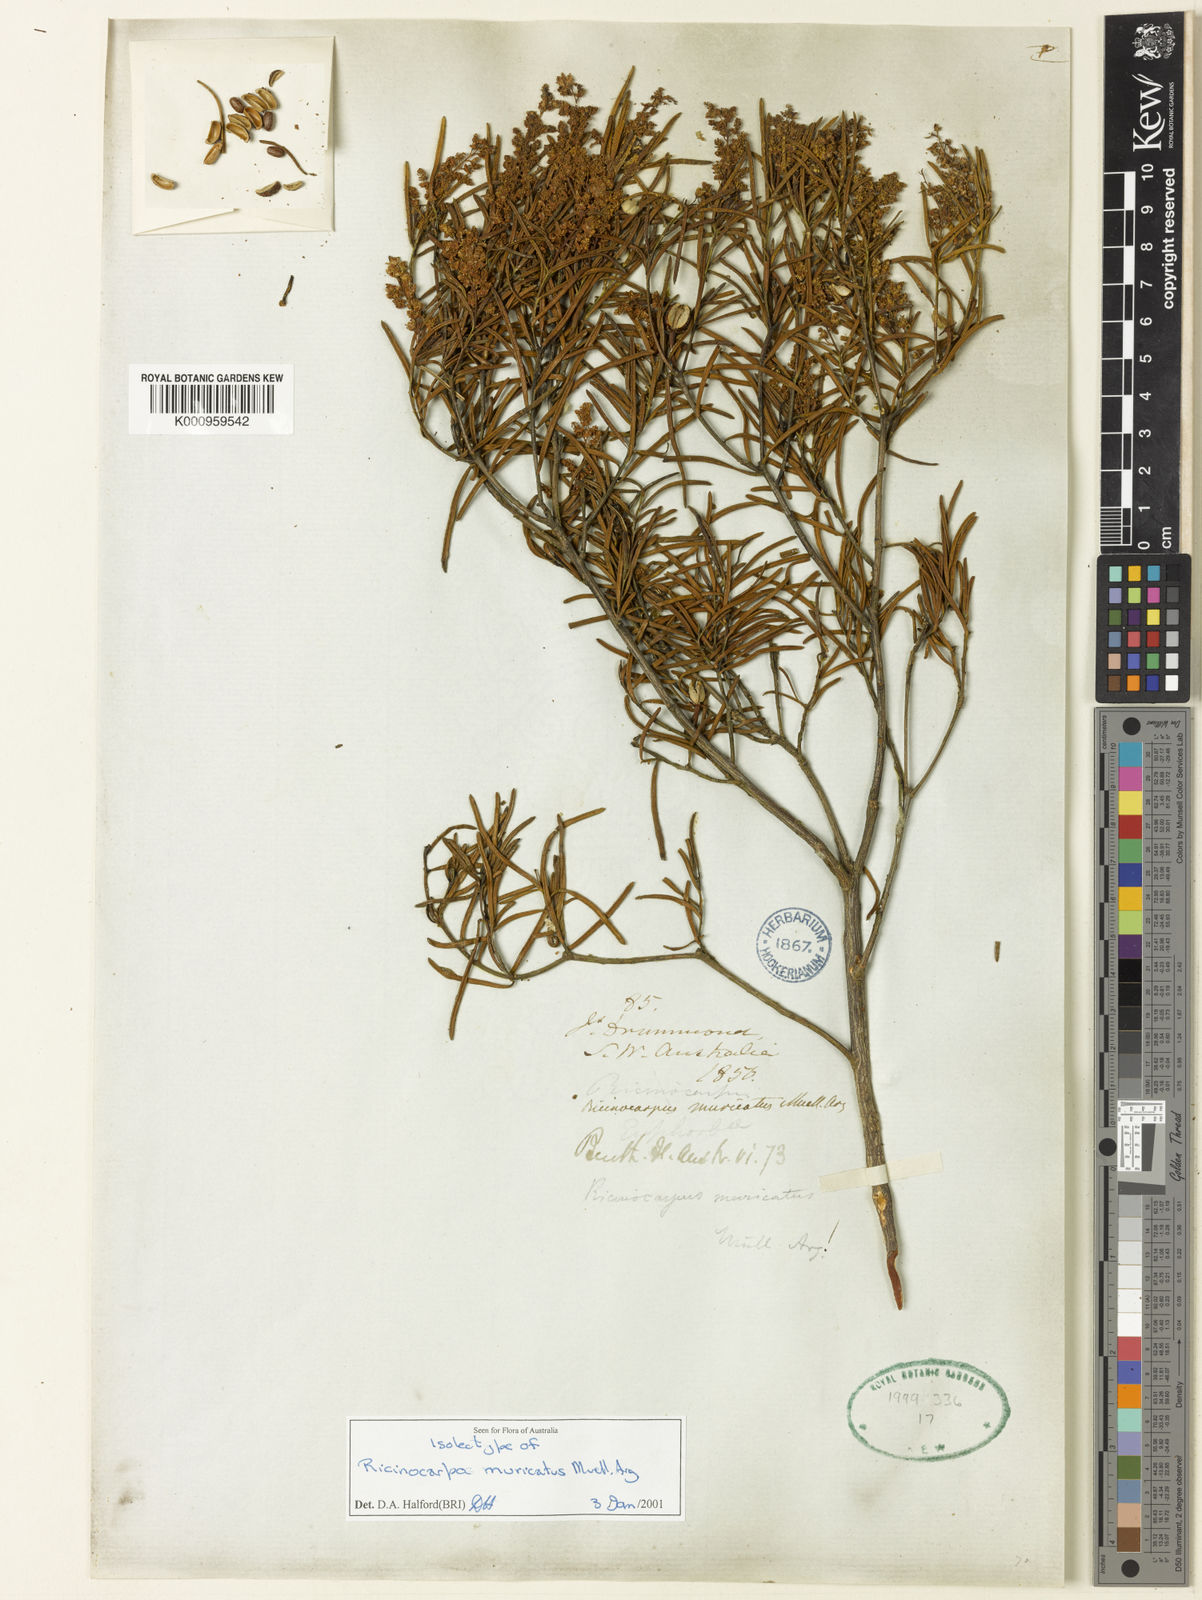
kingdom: Plantae
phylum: Tracheophyta
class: Magnoliopsida
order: Malpighiales
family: Euphorbiaceae
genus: Ricinocarpos
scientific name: Ricinocarpos
